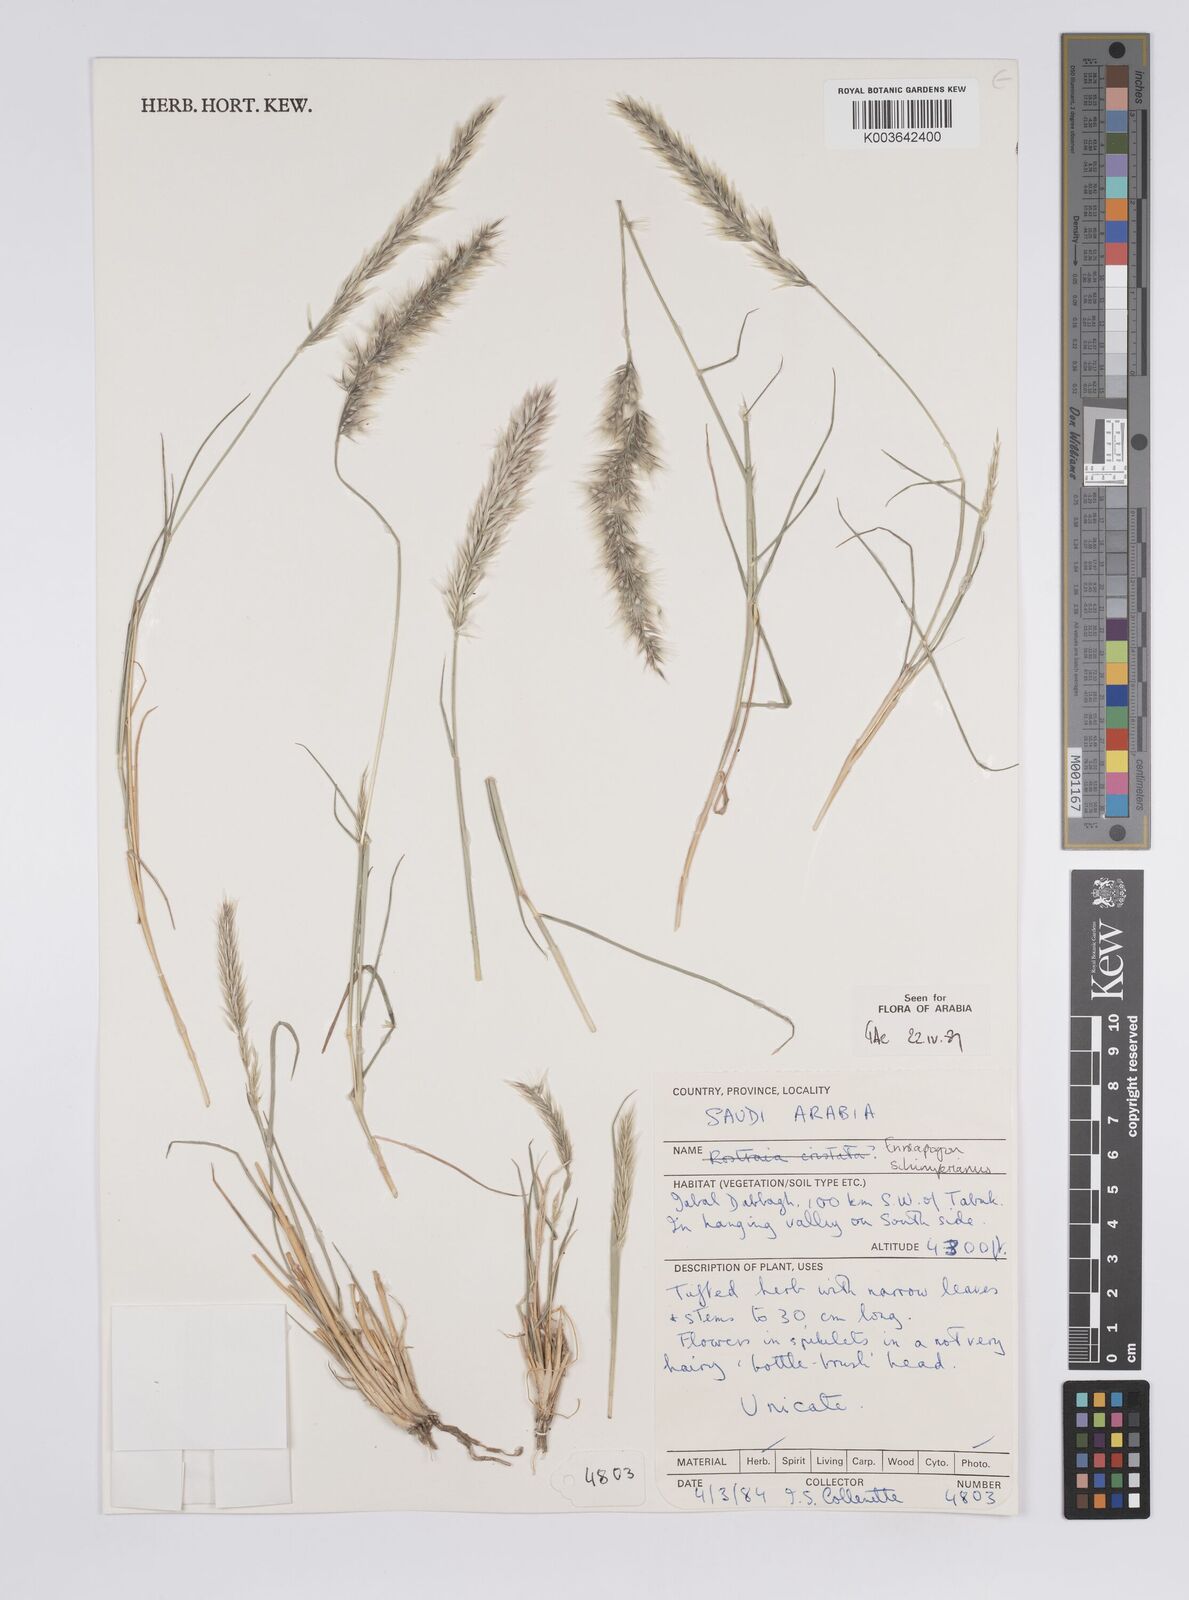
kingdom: Plantae
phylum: Tracheophyta
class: Liliopsida
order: Poales
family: Poaceae
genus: Enneapogon
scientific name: Enneapogon persicus
